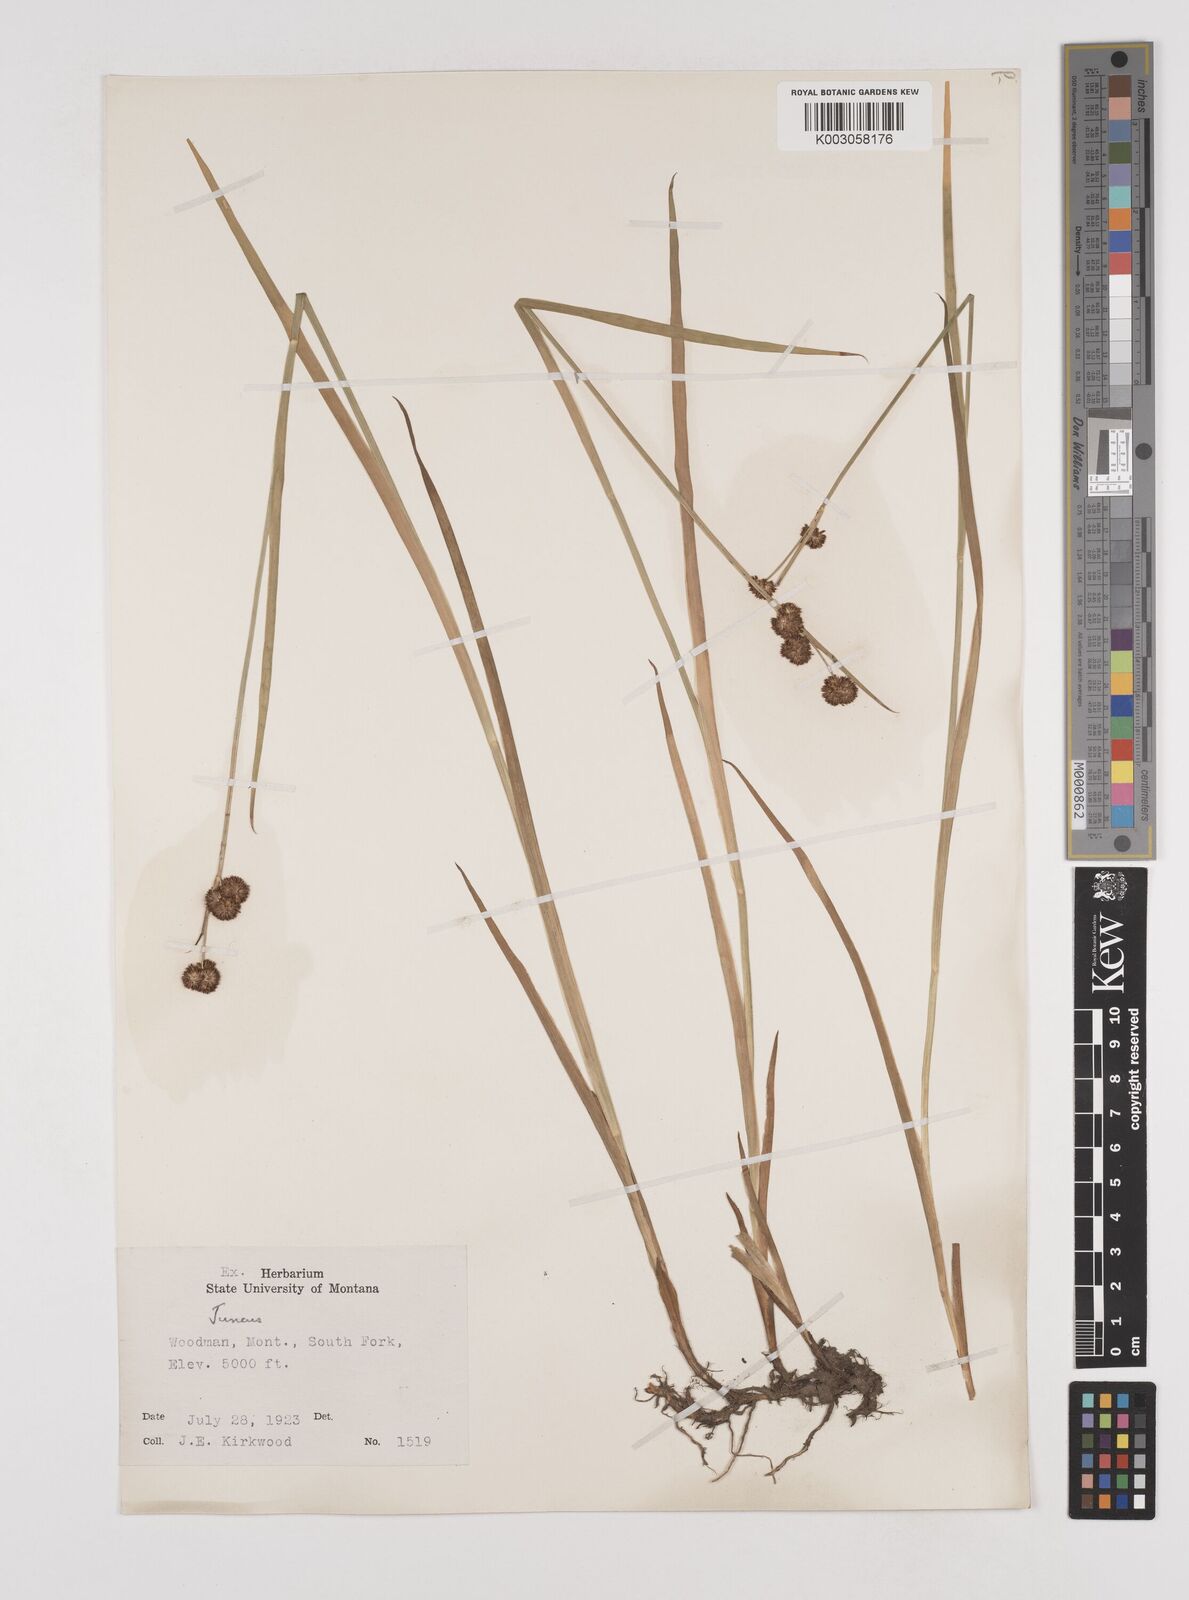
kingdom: Plantae
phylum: Tracheophyta
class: Liliopsida
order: Poales
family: Juncaceae
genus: Juncus
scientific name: Juncus
